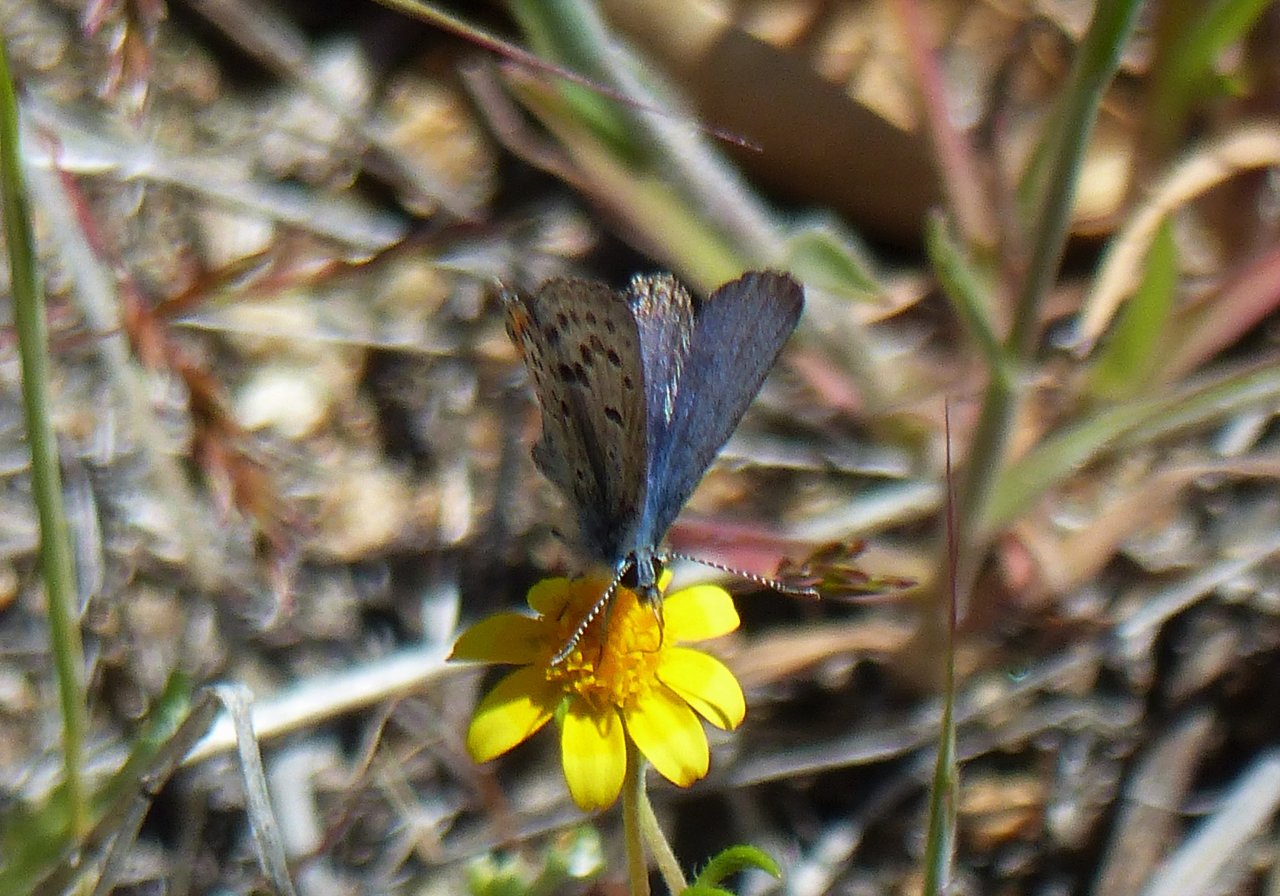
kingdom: Animalia
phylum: Arthropoda
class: Insecta
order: Lepidoptera
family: Lycaenidae
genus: Plebejus
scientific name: Plebejus acmon
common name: Acmon Blue
